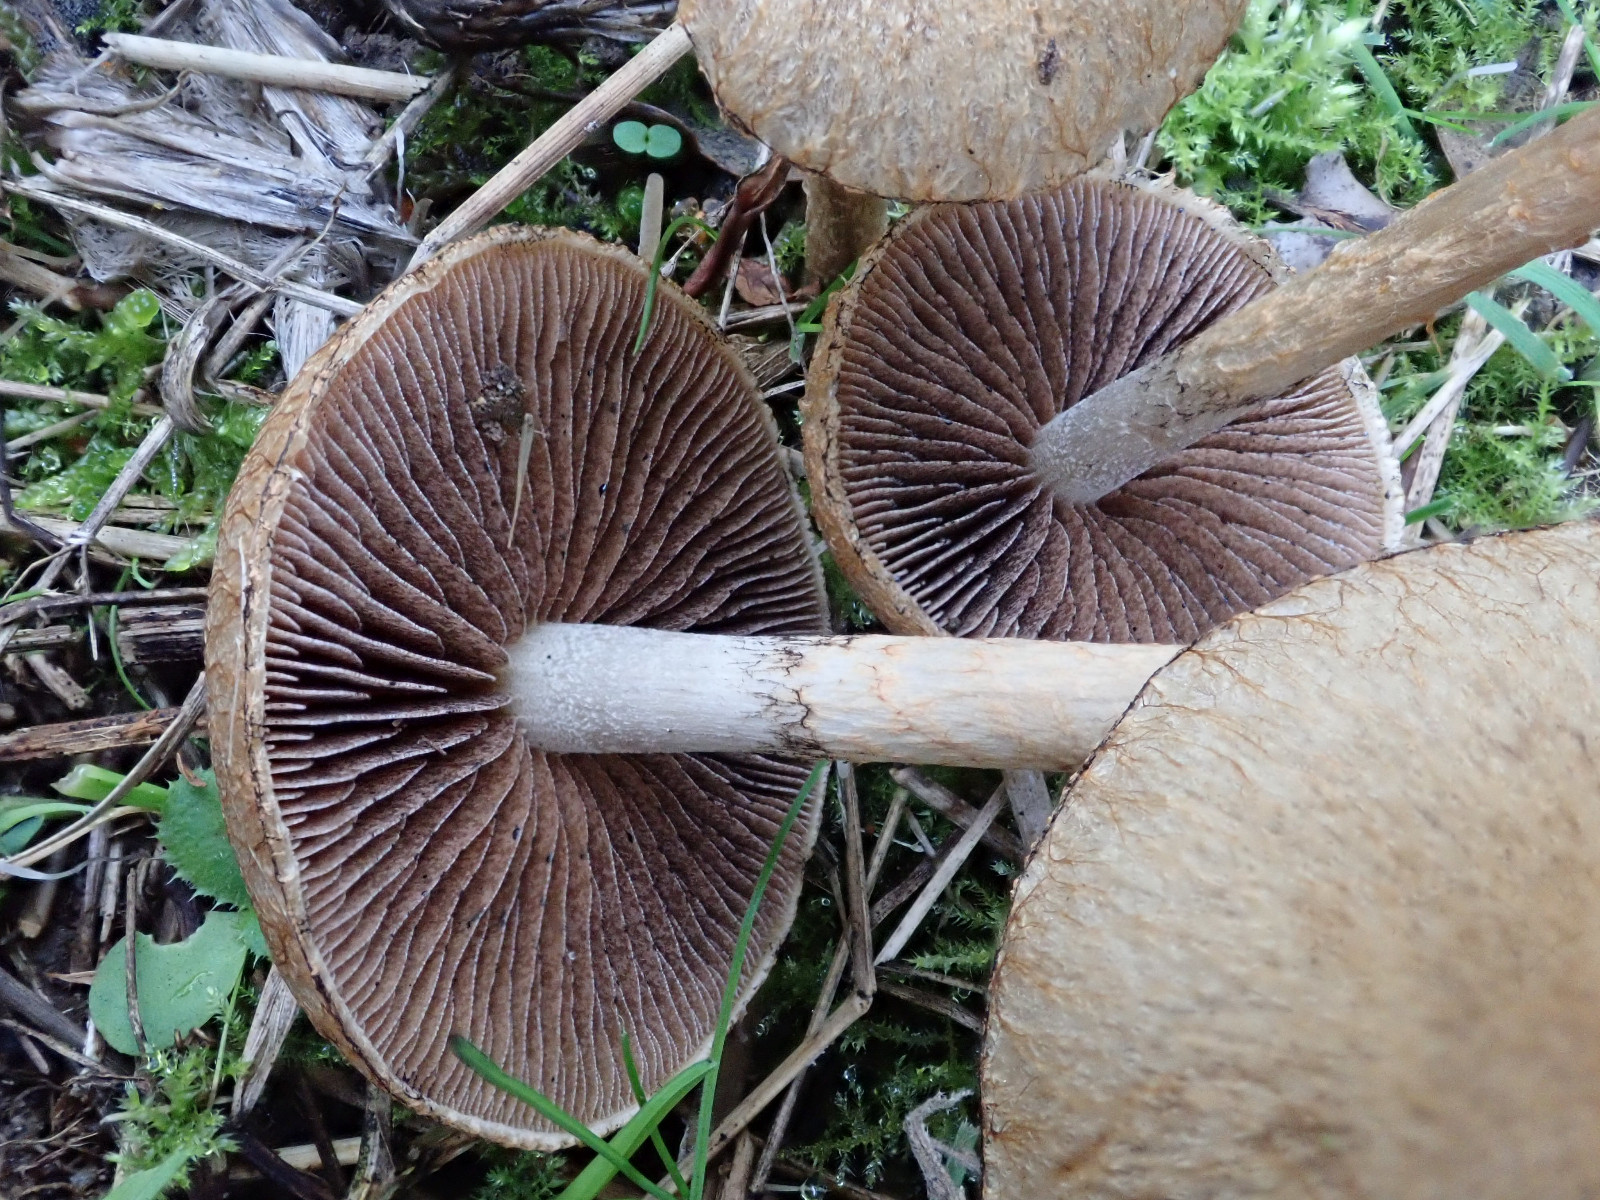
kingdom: Fungi
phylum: Basidiomycota
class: Agaricomycetes
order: Agaricales
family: Psathyrellaceae
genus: Lacrymaria
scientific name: Lacrymaria lacrymabunda
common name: grædende mørkhat
